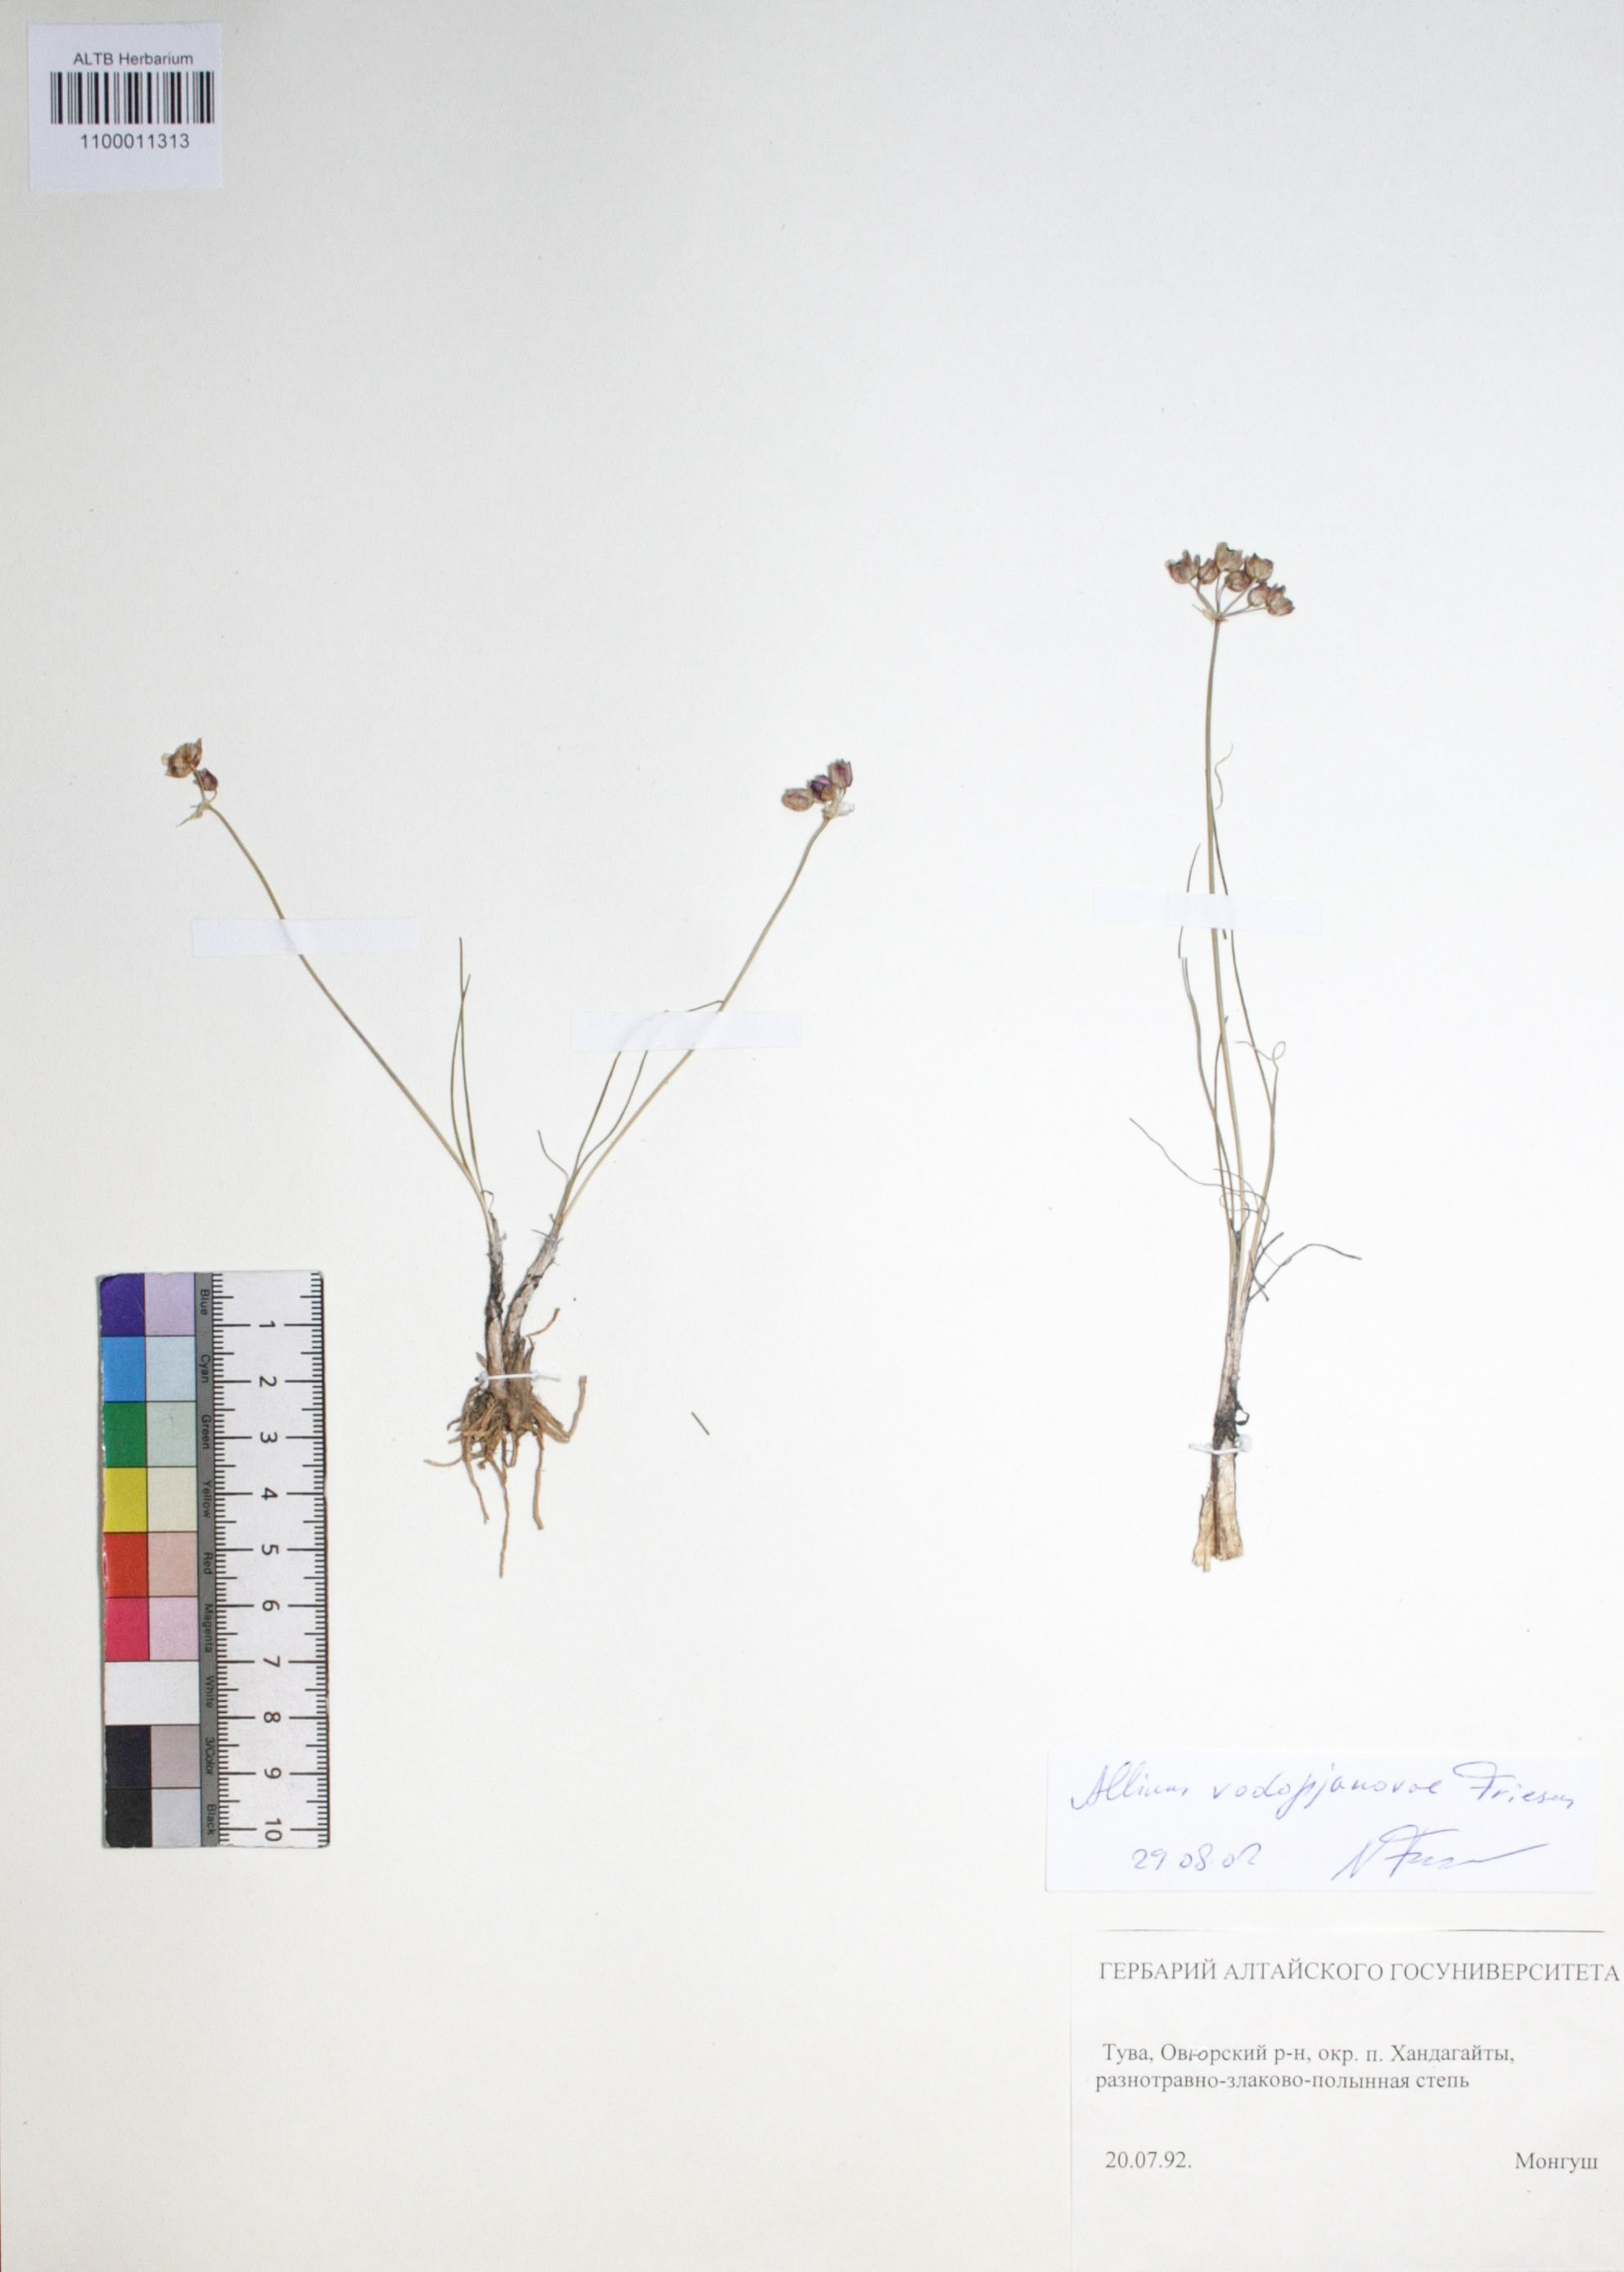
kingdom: Plantae
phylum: Tracheophyta
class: Liliopsida
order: Asparagales
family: Amaryllidaceae
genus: Allium
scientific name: Allium vodopjanovae
